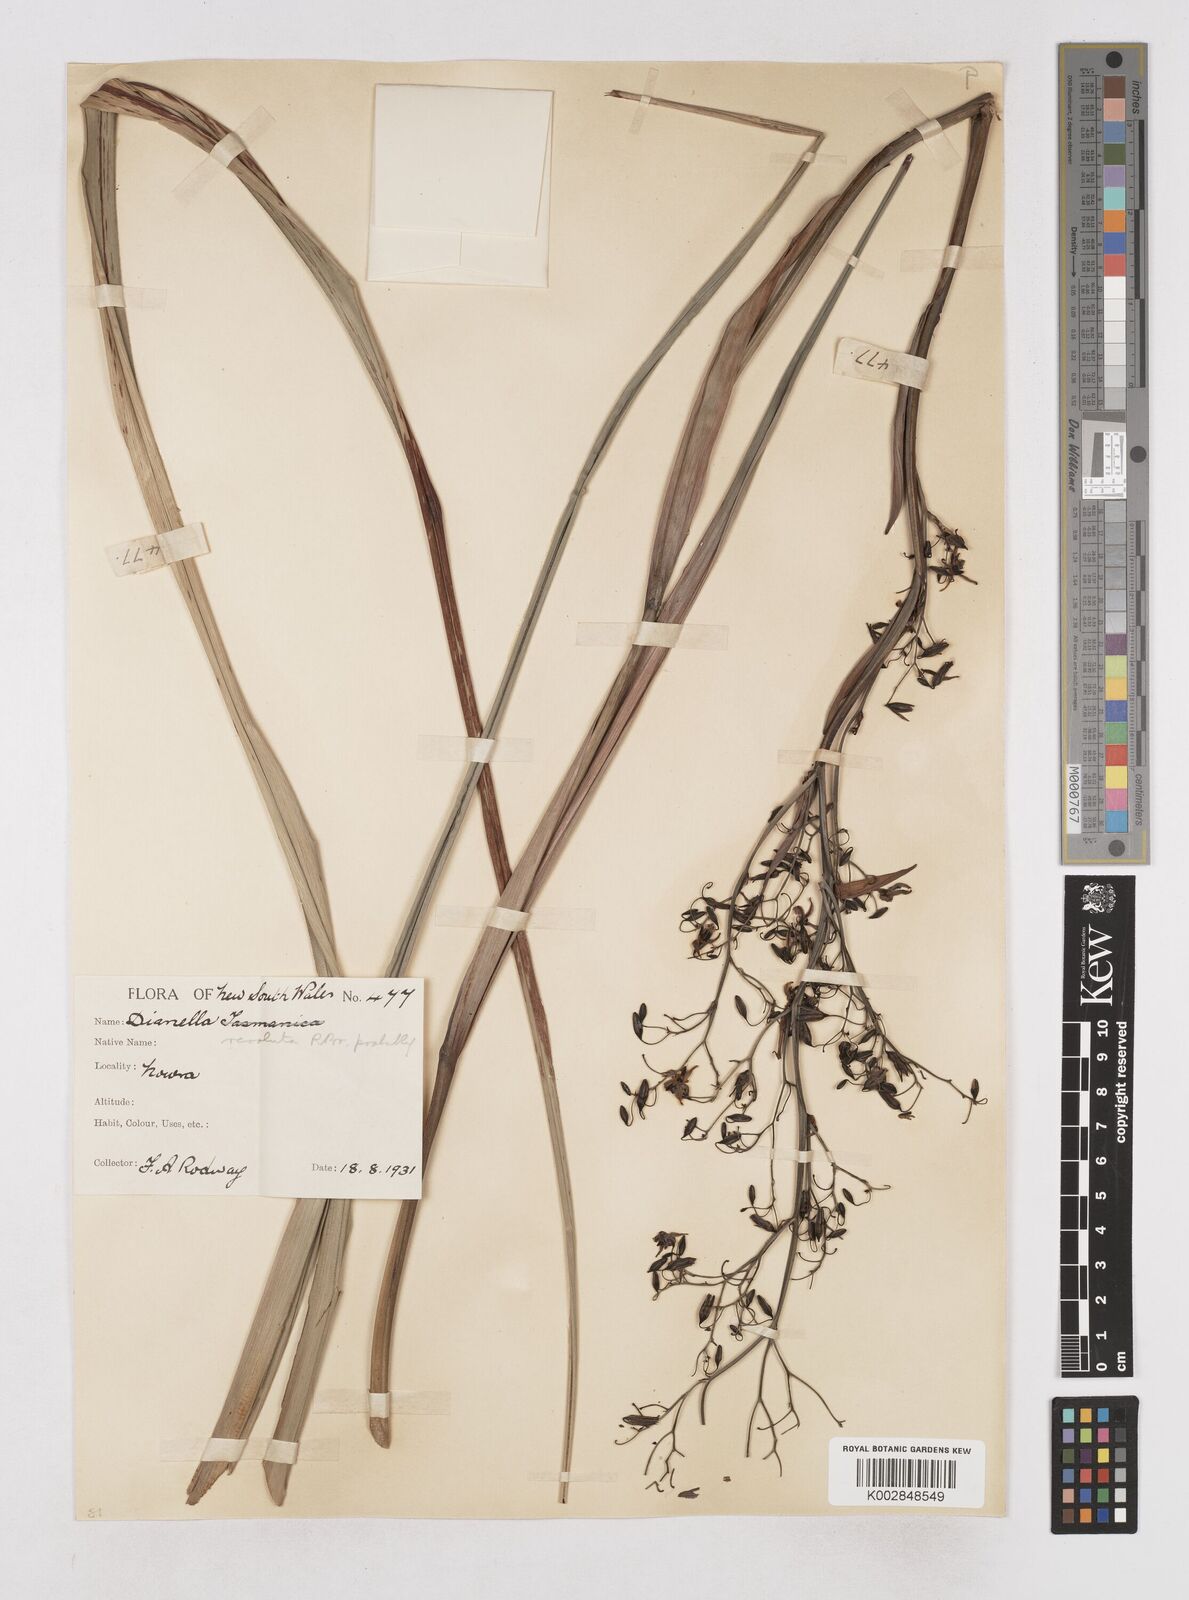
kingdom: Plantae
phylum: Tracheophyta
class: Liliopsida
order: Asparagales
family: Asphodelaceae
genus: Dianella
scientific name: Dianella revoluta
